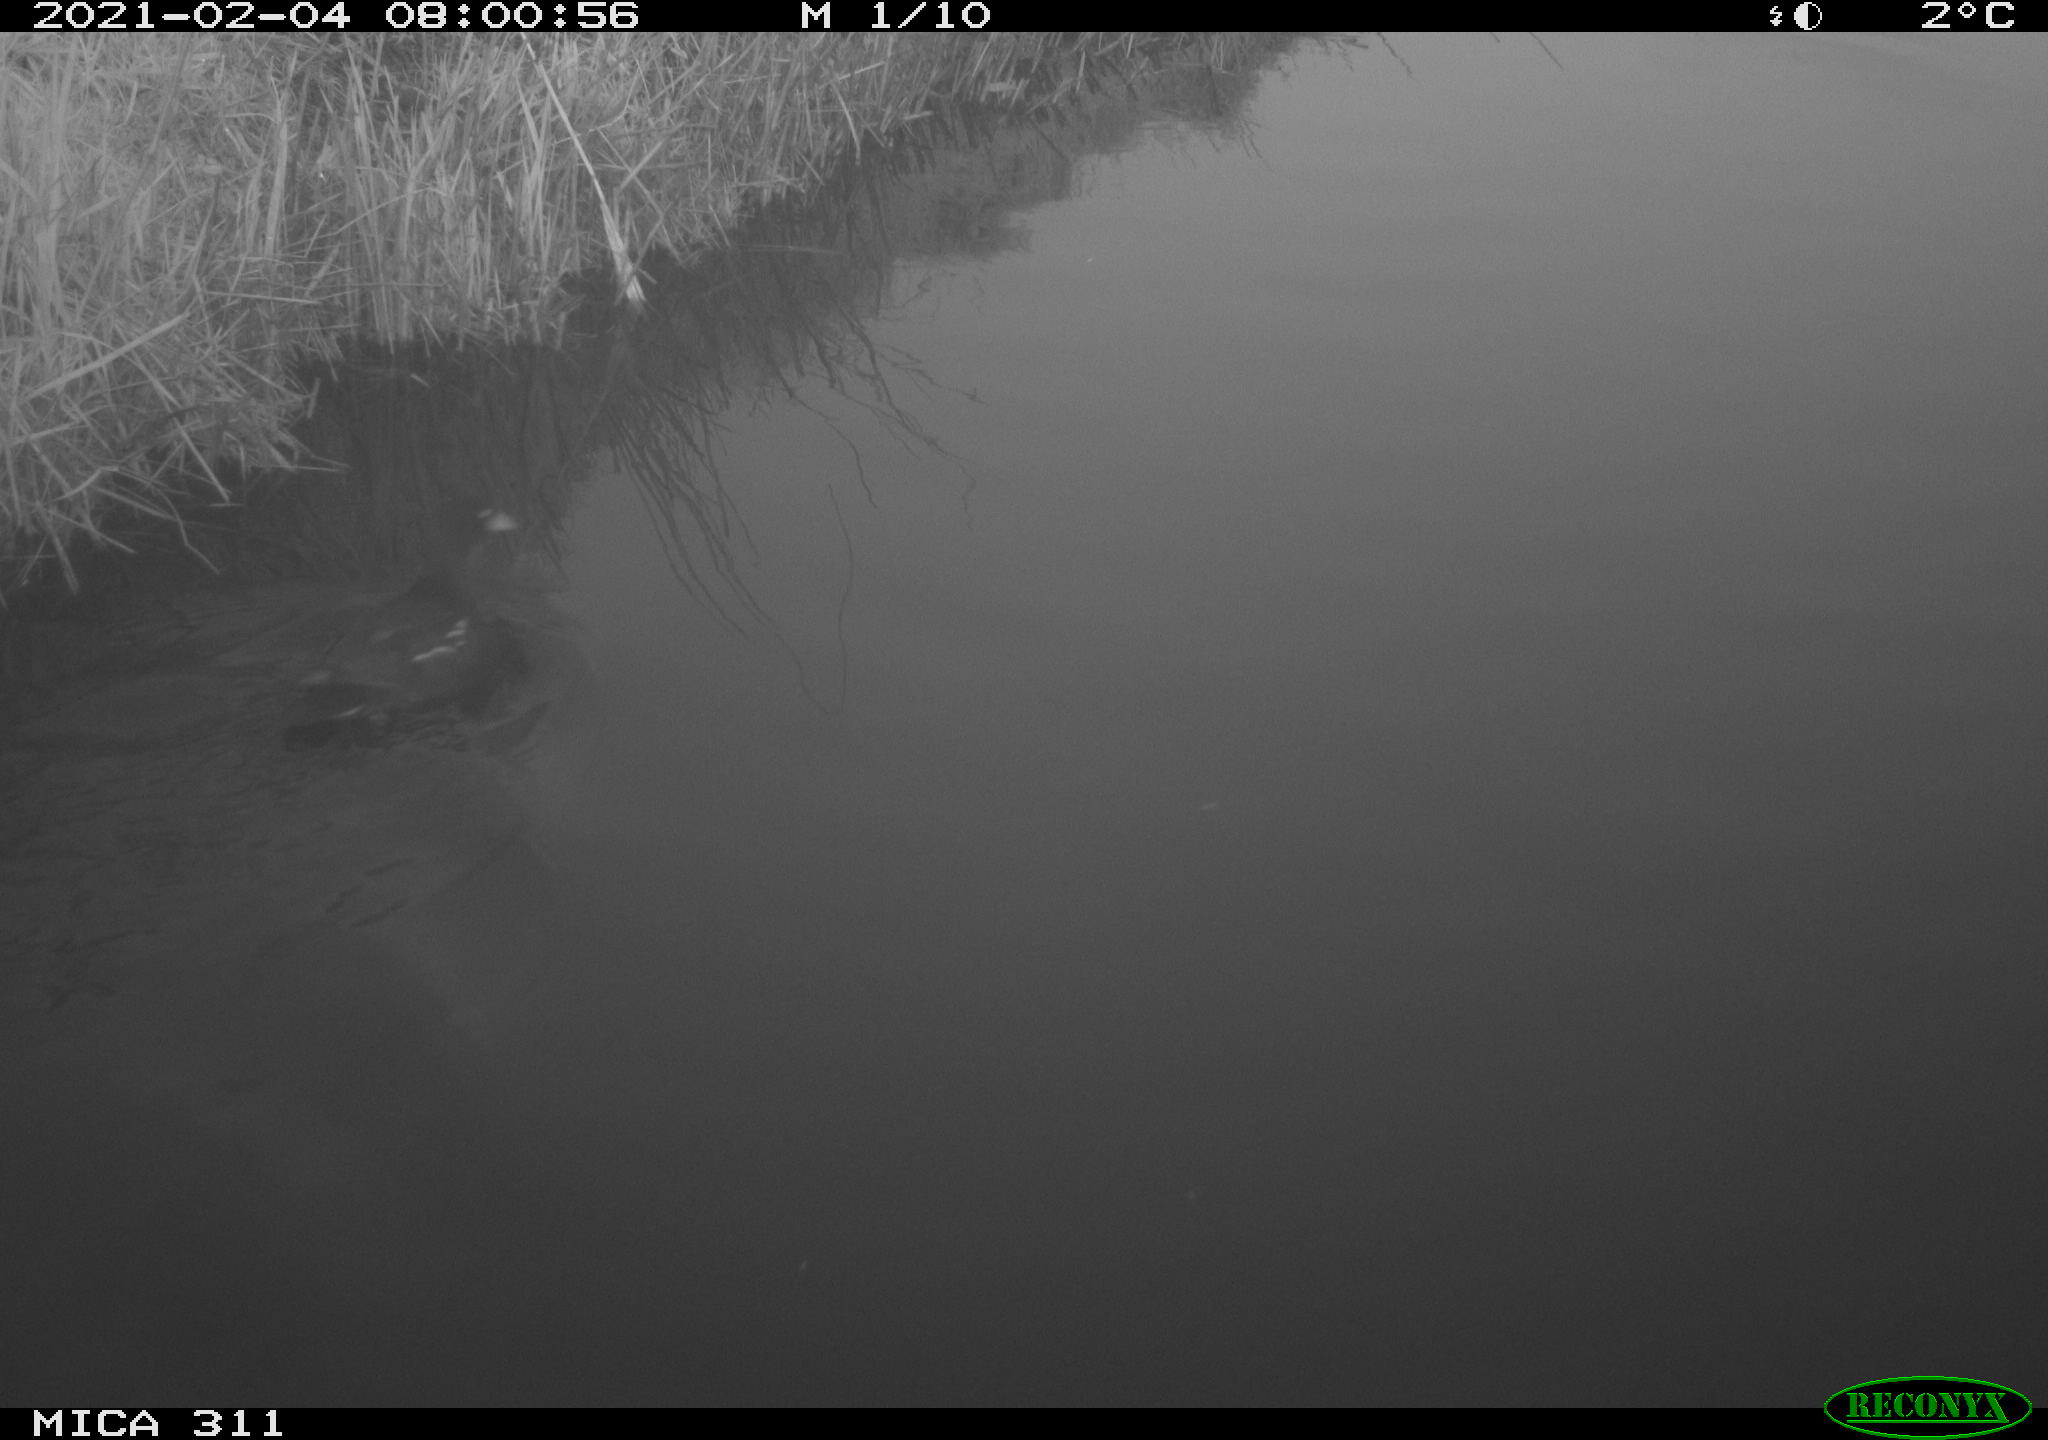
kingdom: Animalia
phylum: Chordata
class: Aves
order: Gruiformes
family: Rallidae
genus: Gallinula
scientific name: Gallinula chloropus
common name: Common moorhen
